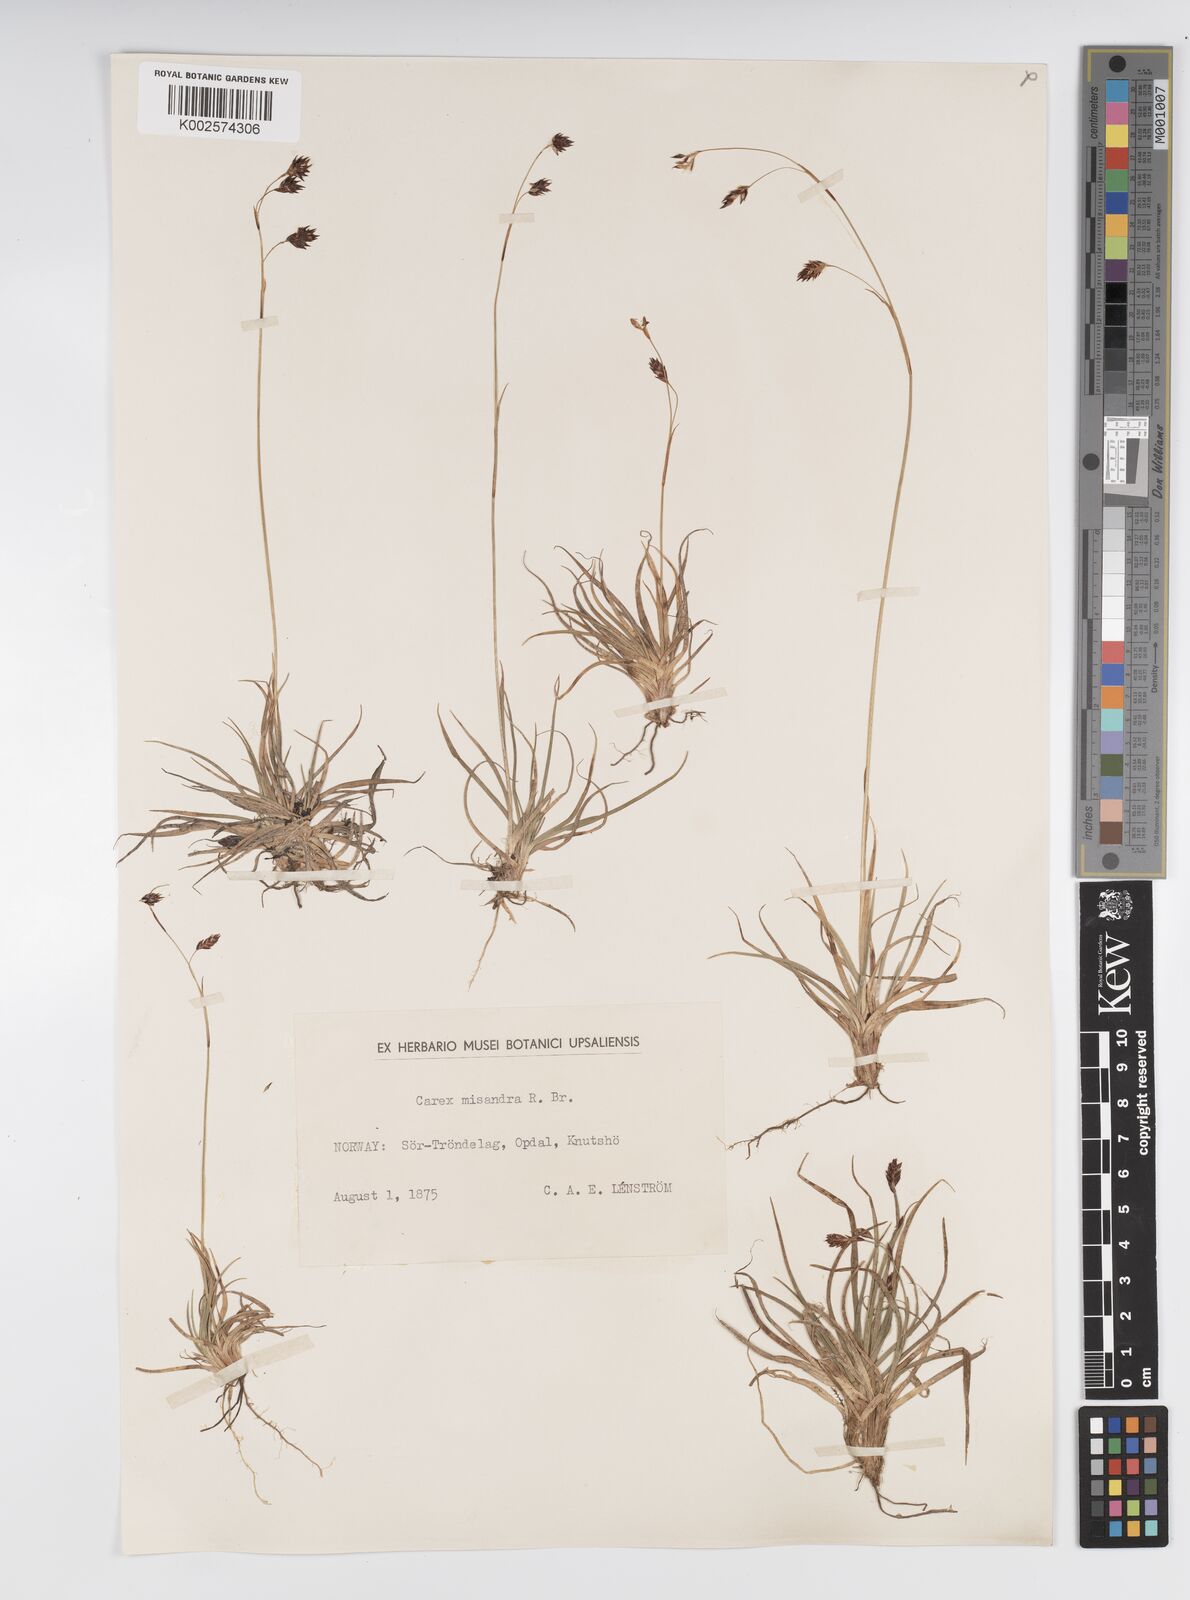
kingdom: Plantae
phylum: Tracheophyta
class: Liliopsida
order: Poales
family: Cyperaceae
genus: Carex
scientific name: Carex fuliginosa
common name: Few-flowered sedge
